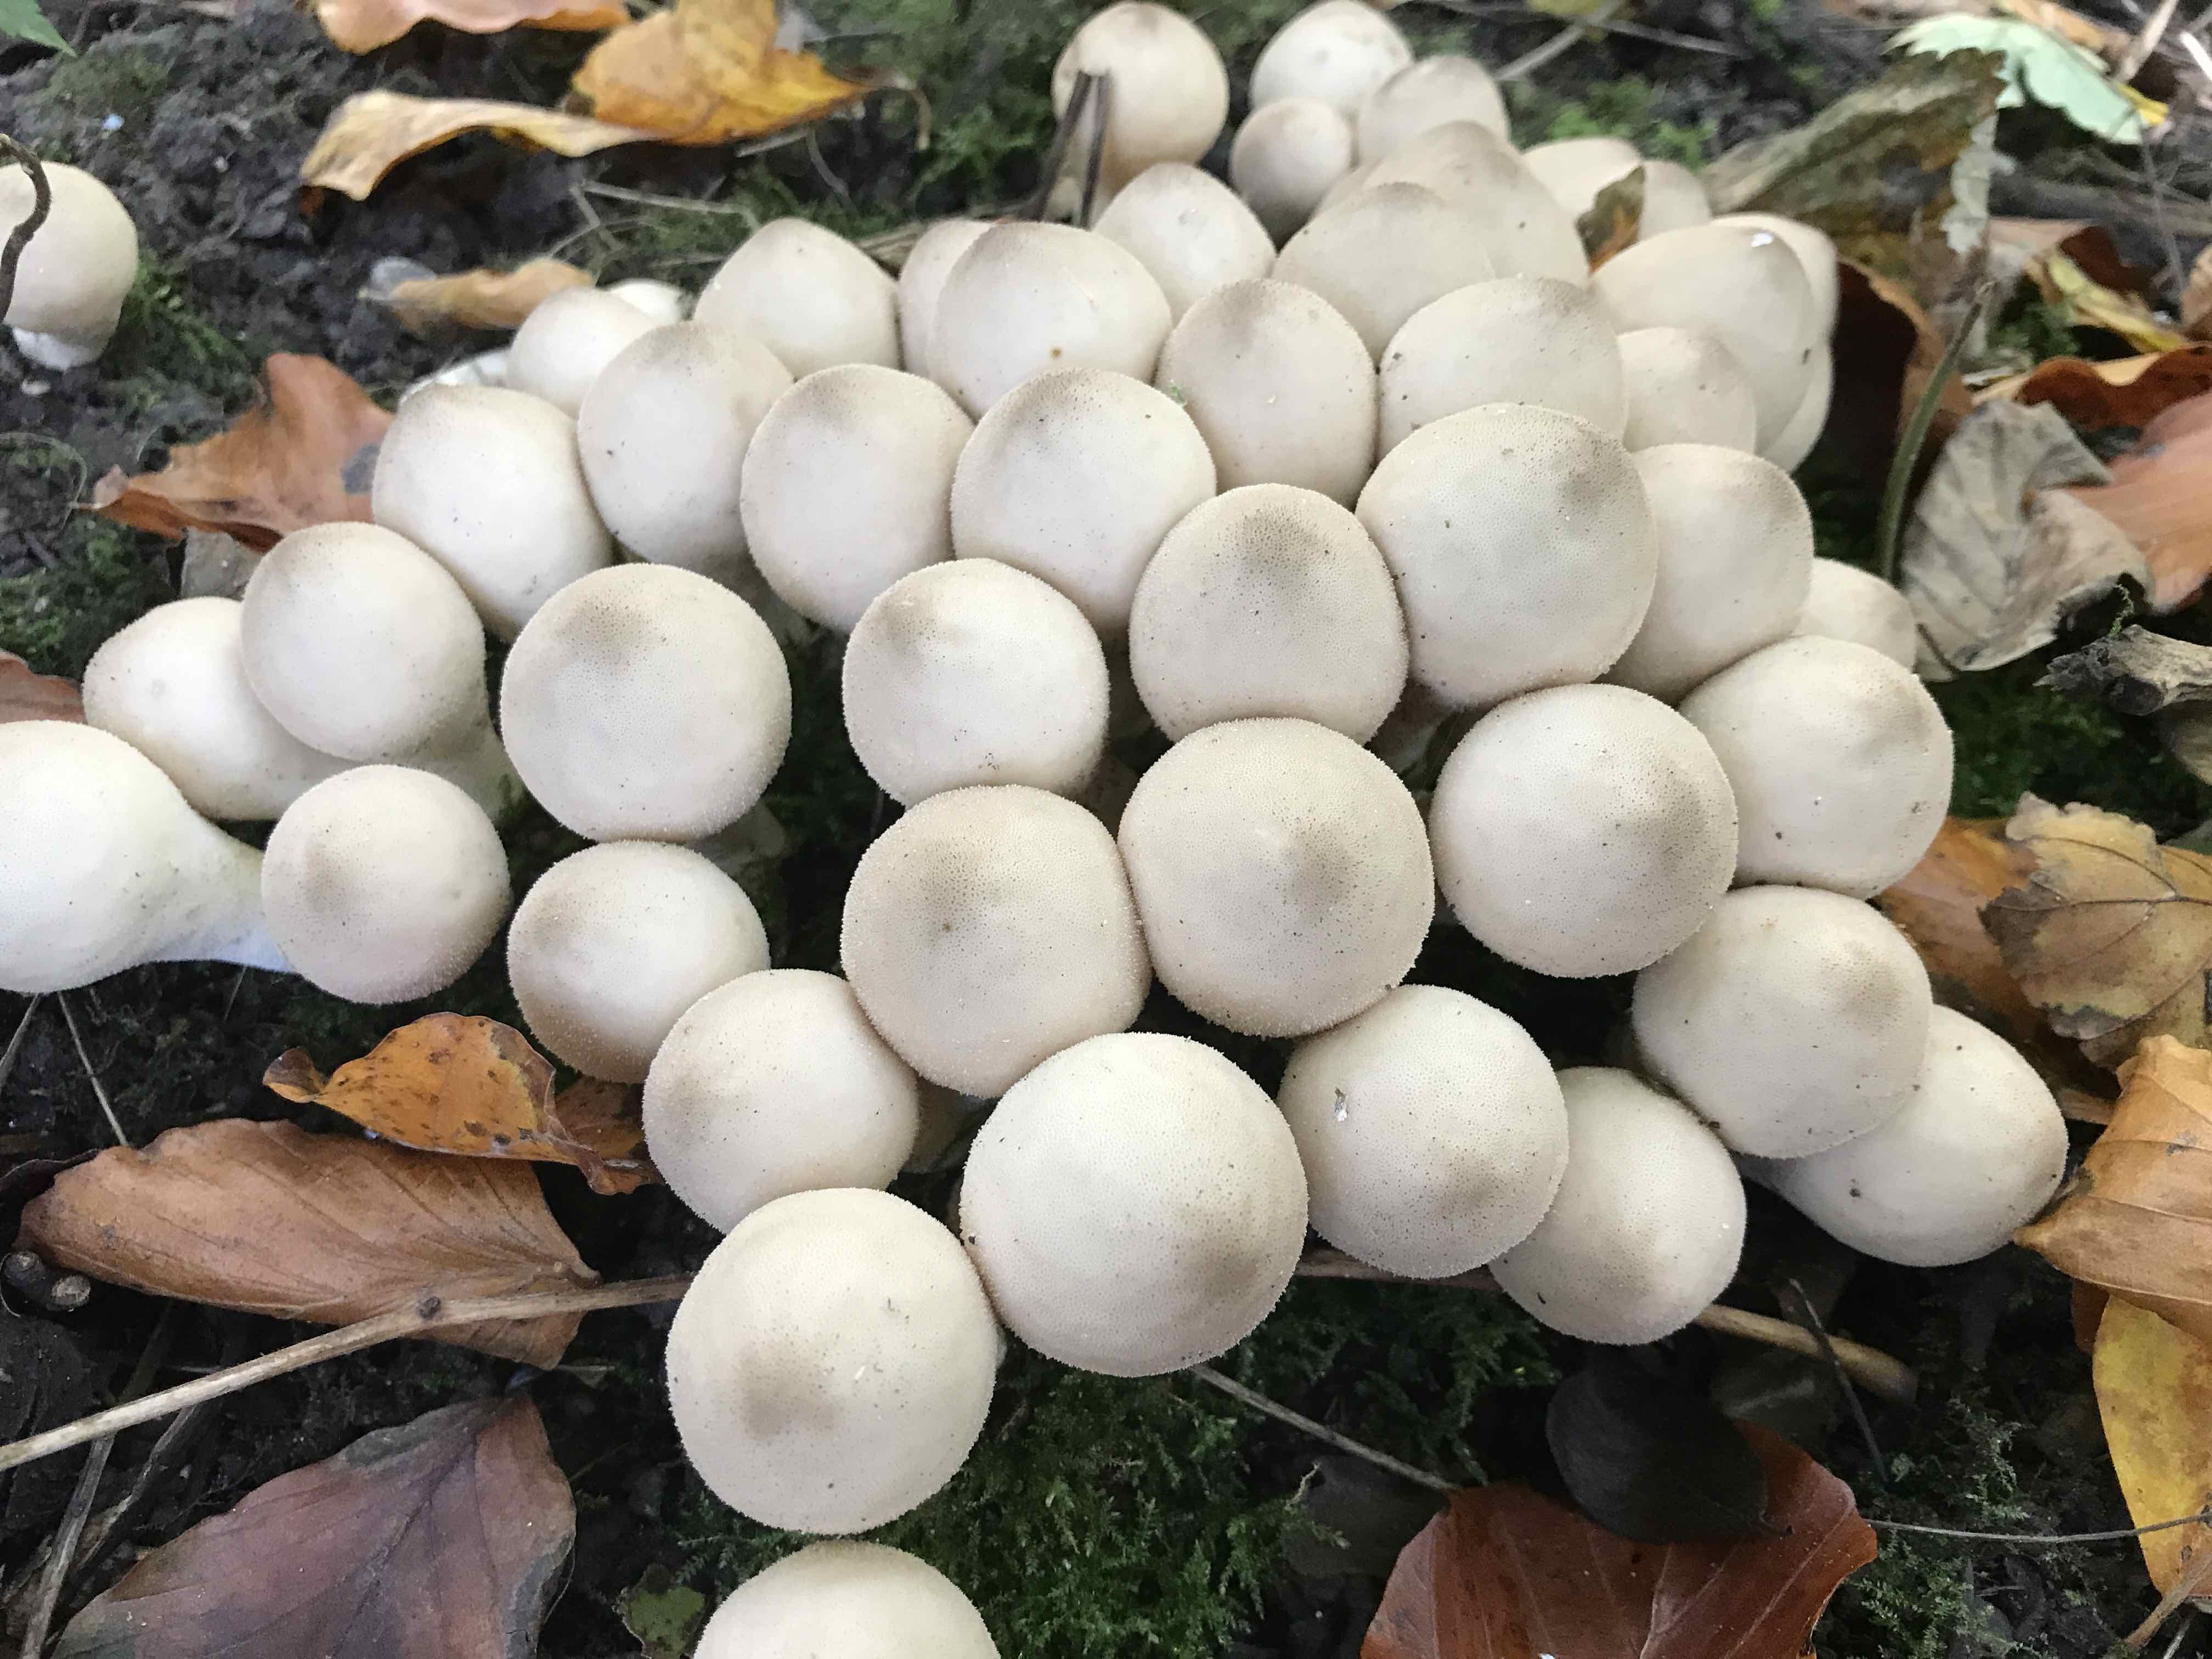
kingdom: Fungi
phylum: Basidiomycota
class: Agaricomycetes
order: Agaricales
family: Lycoperdaceae
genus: Apioperdon
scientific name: Apioperdon pyriforme
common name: pære-støvbold
